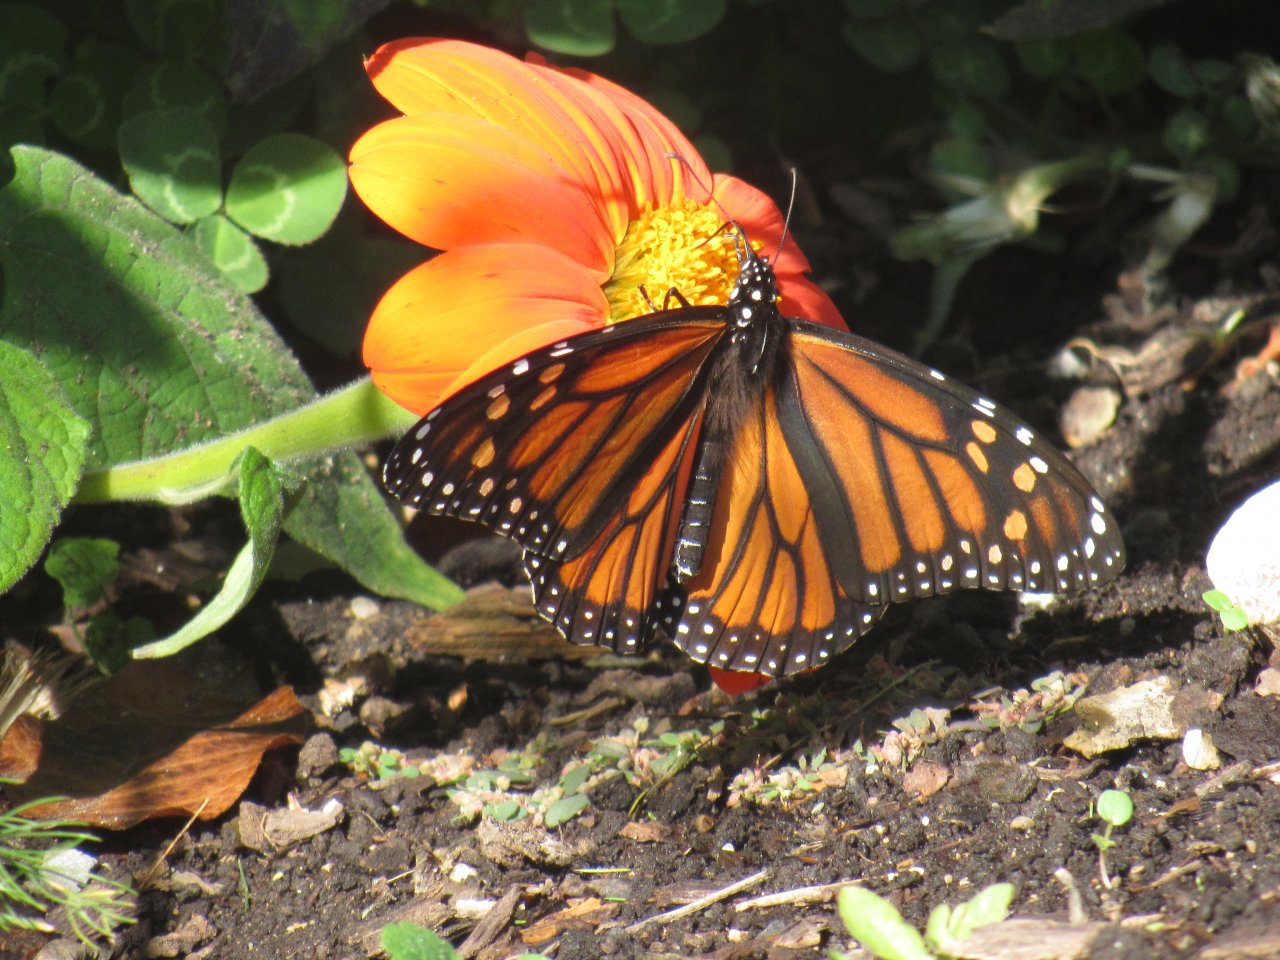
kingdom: Animalia
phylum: Arthropoda
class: Insecta
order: Lepidoptera
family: Nymphalidae
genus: Danaus
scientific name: Danaus plexippus
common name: Monarch
